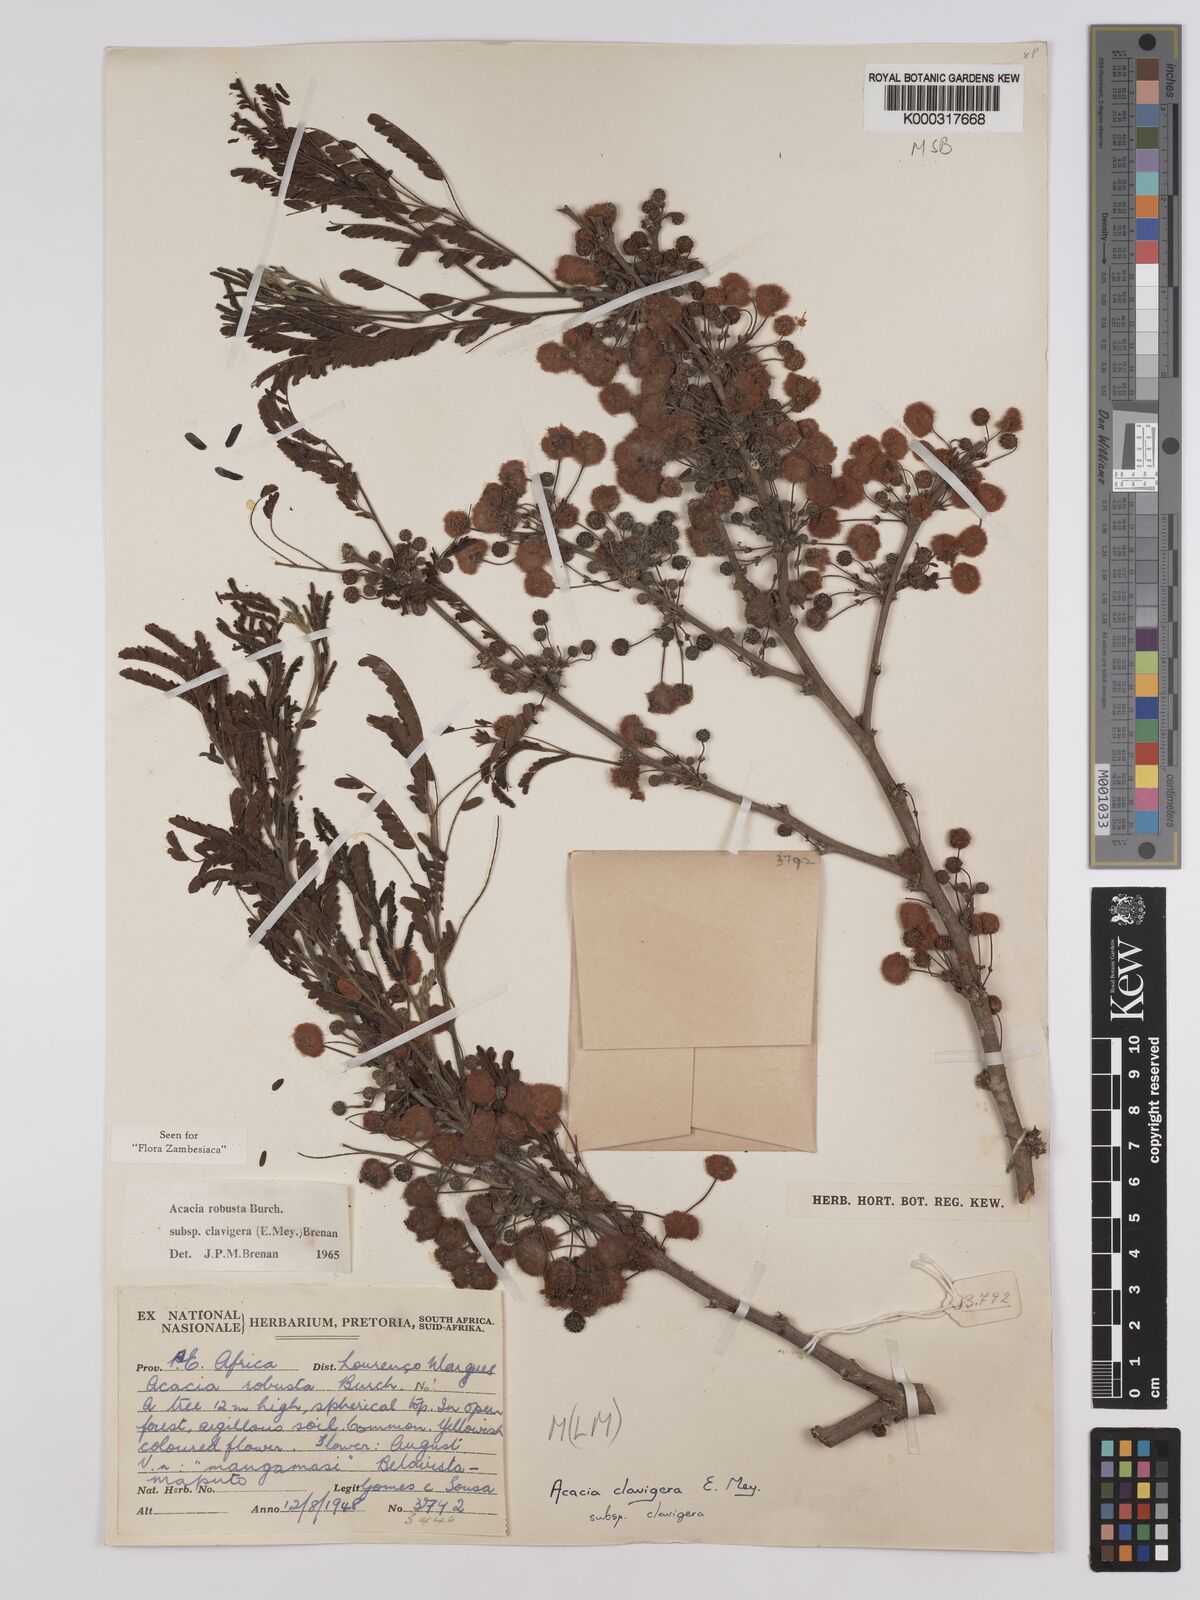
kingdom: Plantae
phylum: Tracheophyta
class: Magnoliopsida
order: Fabales
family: Fabaceae
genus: Vachellia
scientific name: Vachellia robusta
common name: Ankle thorn
